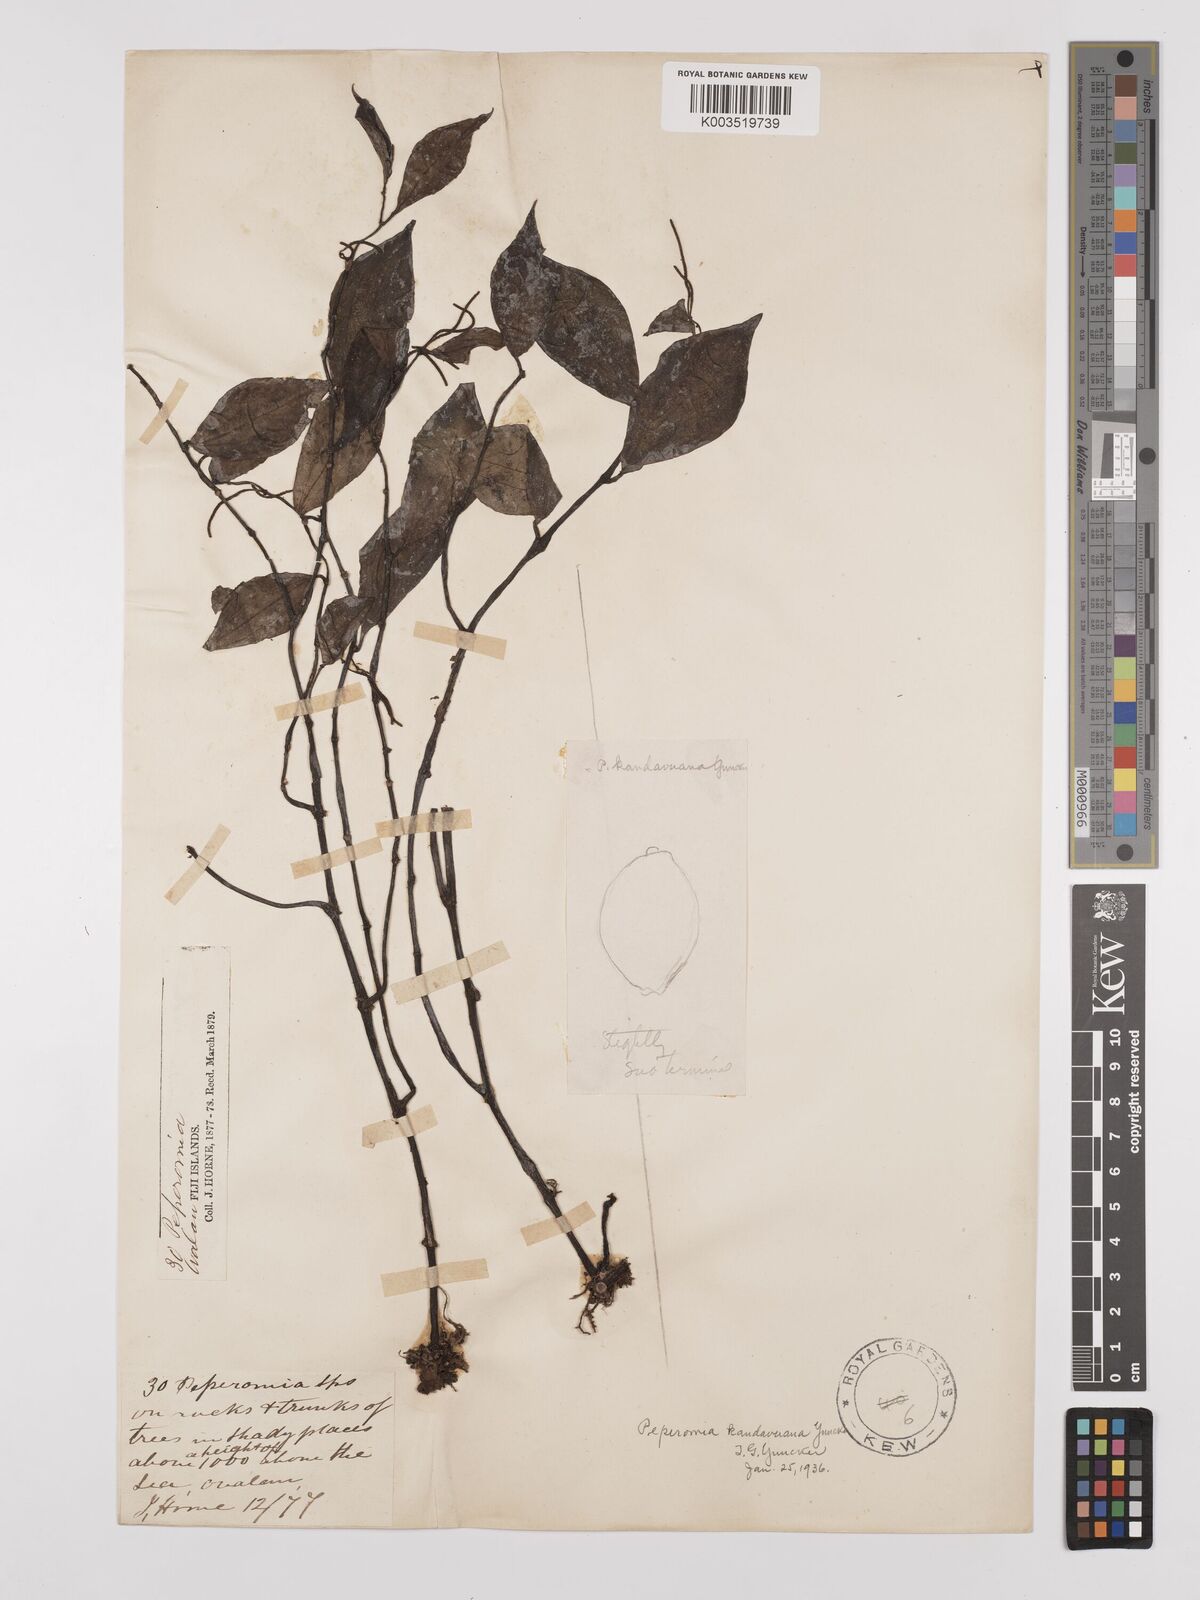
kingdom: Plantae
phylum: Tracheophyta
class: Magnoliopsida
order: Piperales
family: Piperaceae
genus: Peperomia
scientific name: Peperomia lasiostigma
